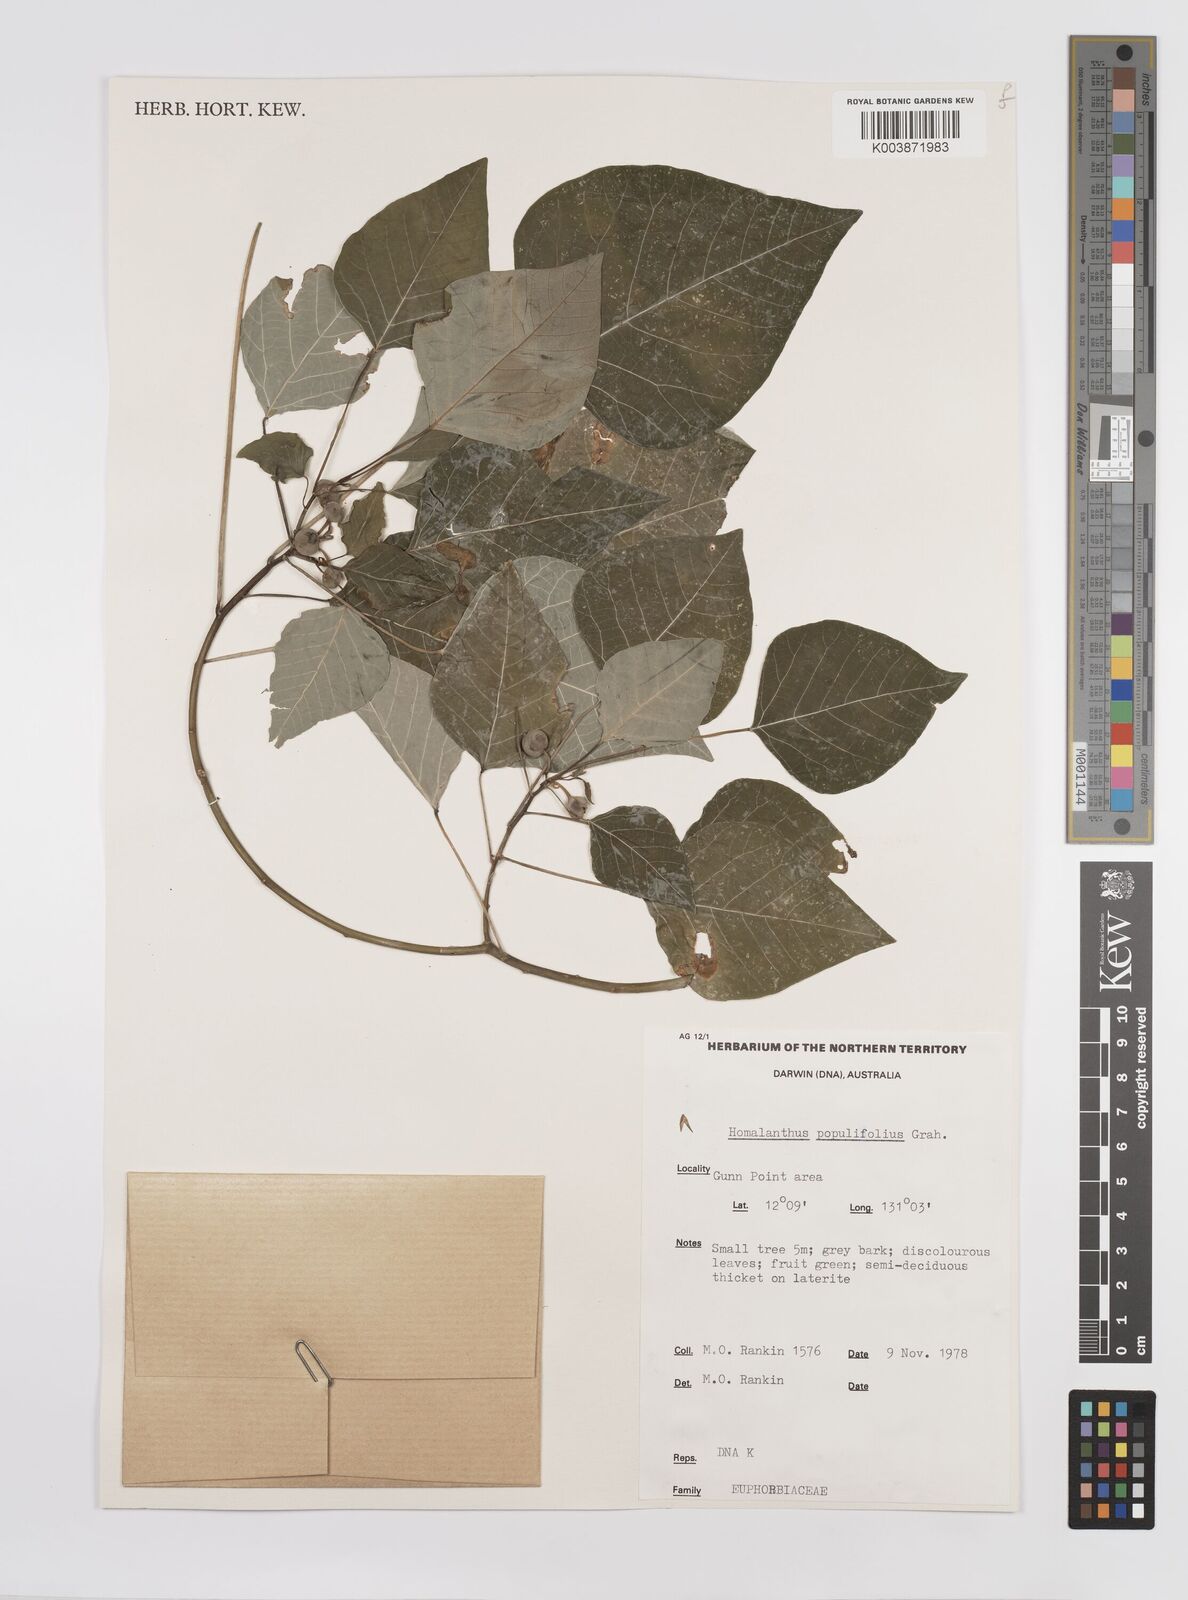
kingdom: Plantae
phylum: Tracheophyta
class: Magnoliopsida
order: Malpighiales
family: Euphorbiaceae
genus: Homalanthus
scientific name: Homalanthus novoguineensis
